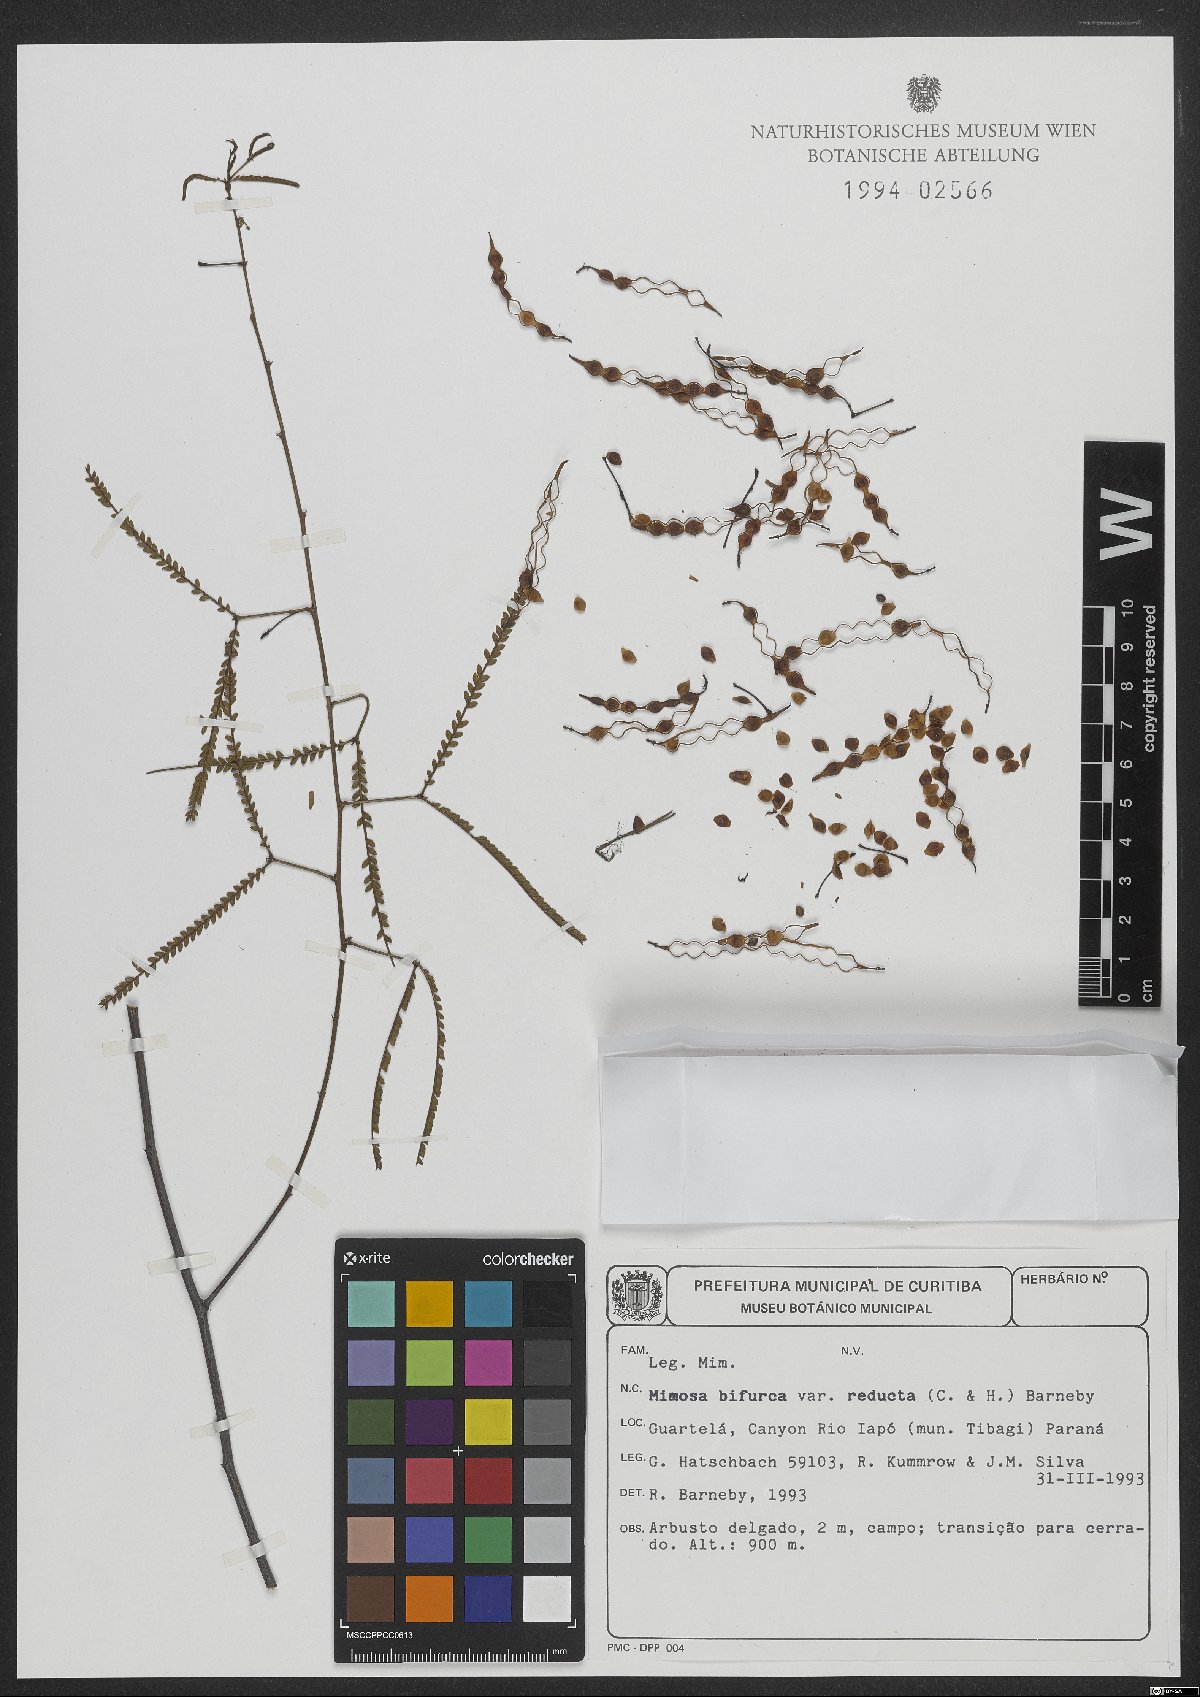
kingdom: Plantae
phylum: Tracheophyta
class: Magnoliopsida
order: Fabales
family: Fabaceae
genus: Mimosa
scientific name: Mimosa bifurca
